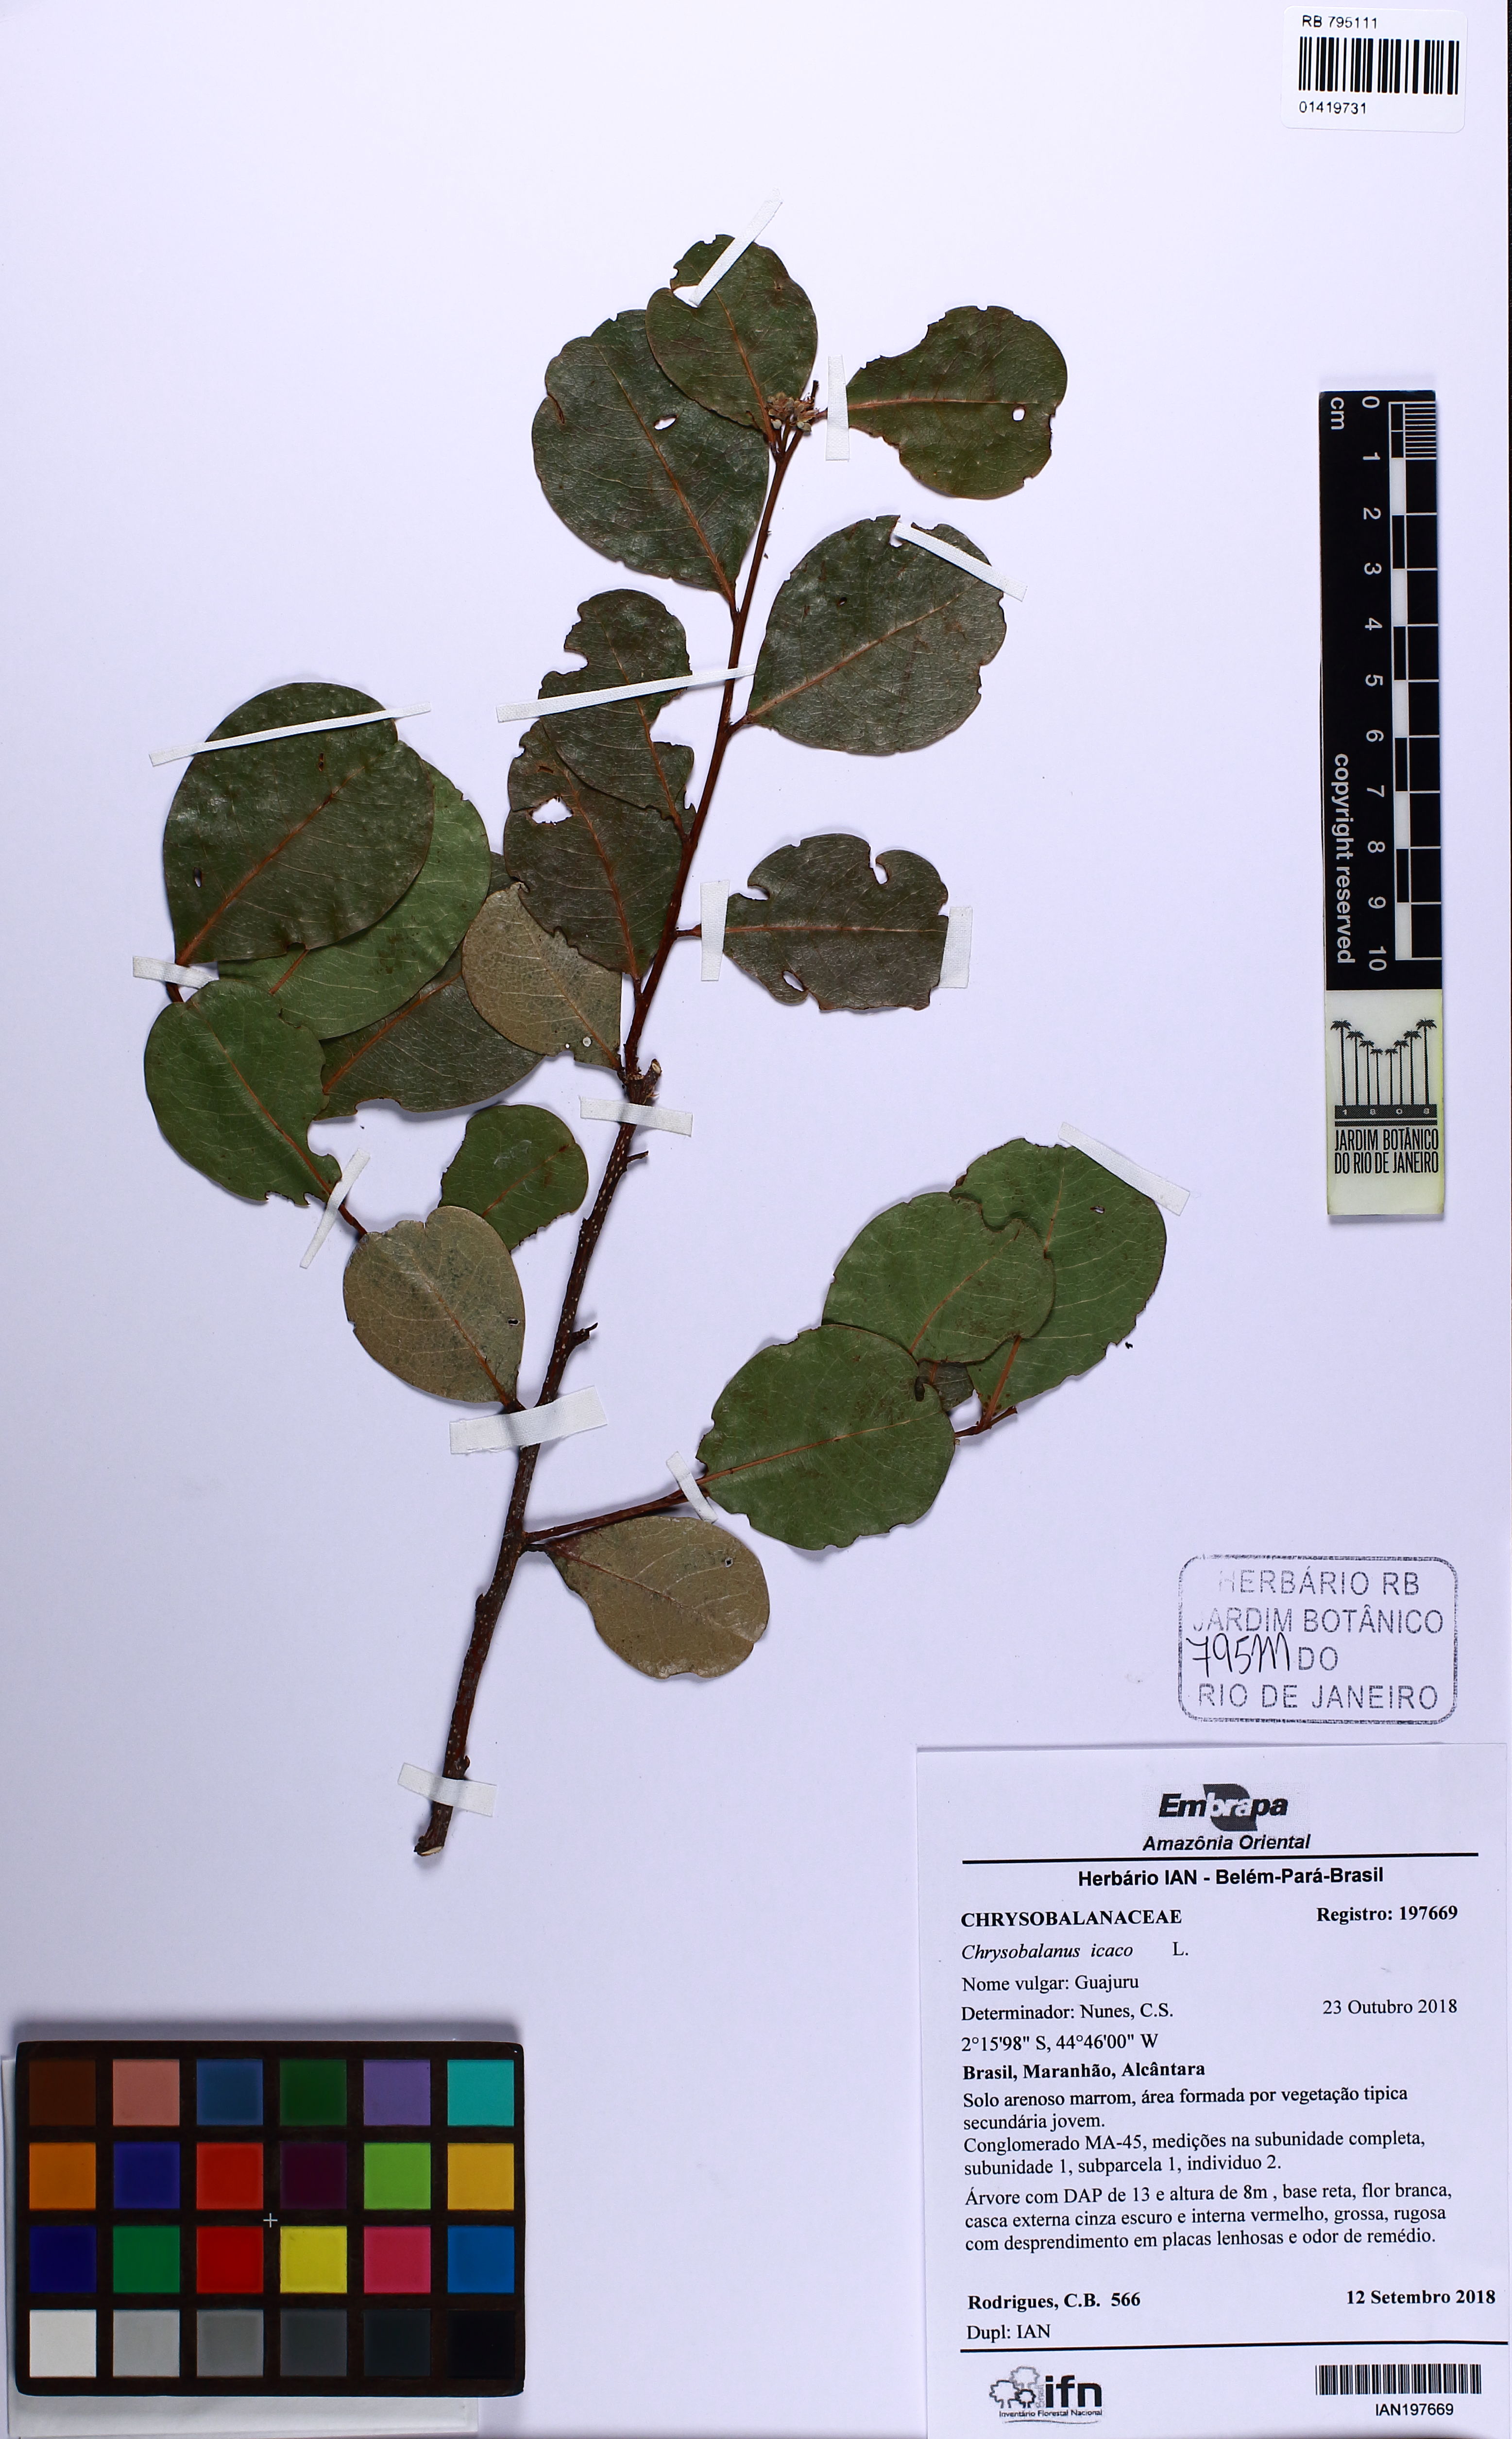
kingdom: Plantae
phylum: Tracheophyta
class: Magnoliopsida
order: Malpighiales
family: Chrysobalanaceae
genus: Chrysobalanus
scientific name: Chrysobalanus icaco
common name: Coco plum
